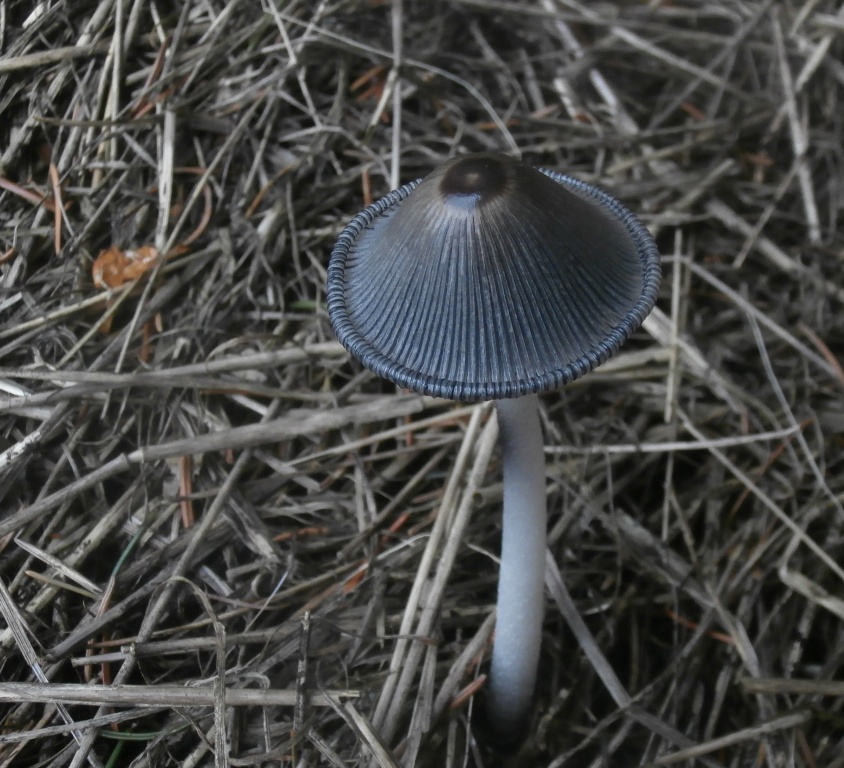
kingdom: Fungi
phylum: Basidiomycota
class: Agaricomycetes
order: Agaricales
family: Psathyrellaceae
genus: Coprinopsis
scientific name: Coprinopsis macrocephala
